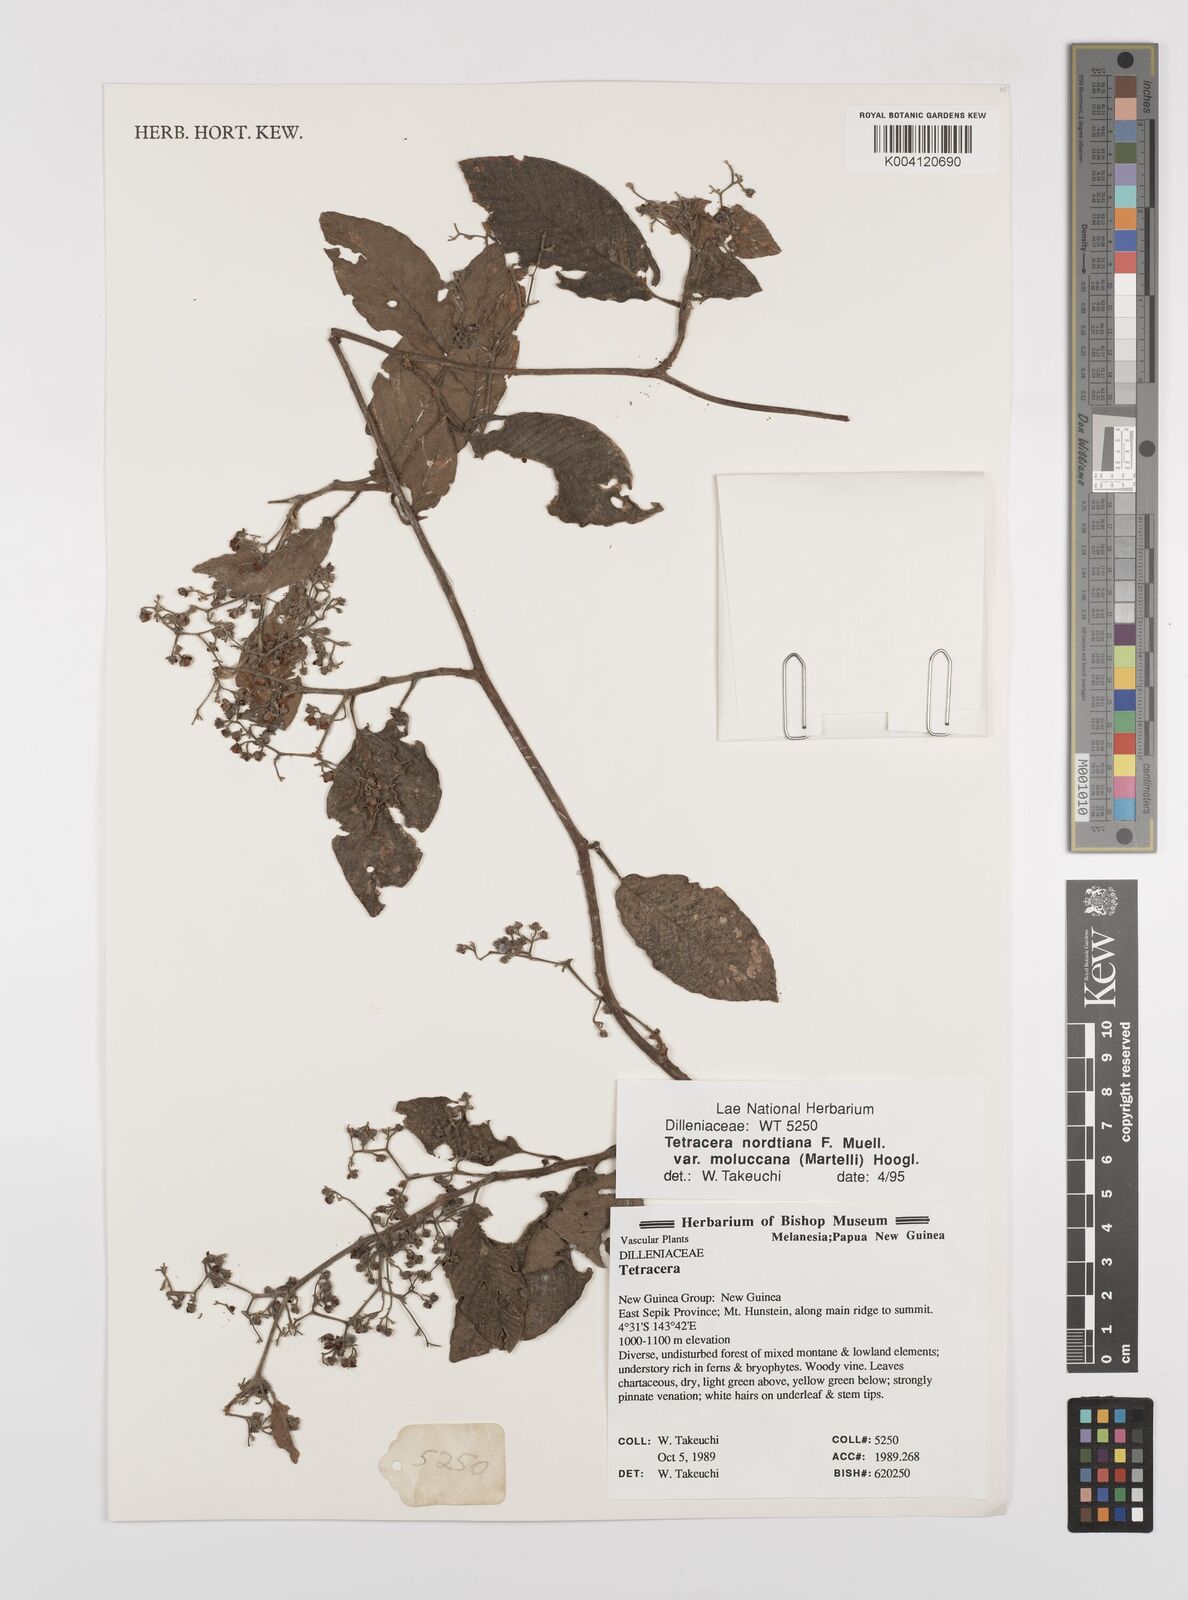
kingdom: Plantae
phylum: Tracheophyta
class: Magnoliopsida
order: Dilleniales
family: Dilleniaceae
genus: Tetracera
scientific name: Tetracera nordtiana
